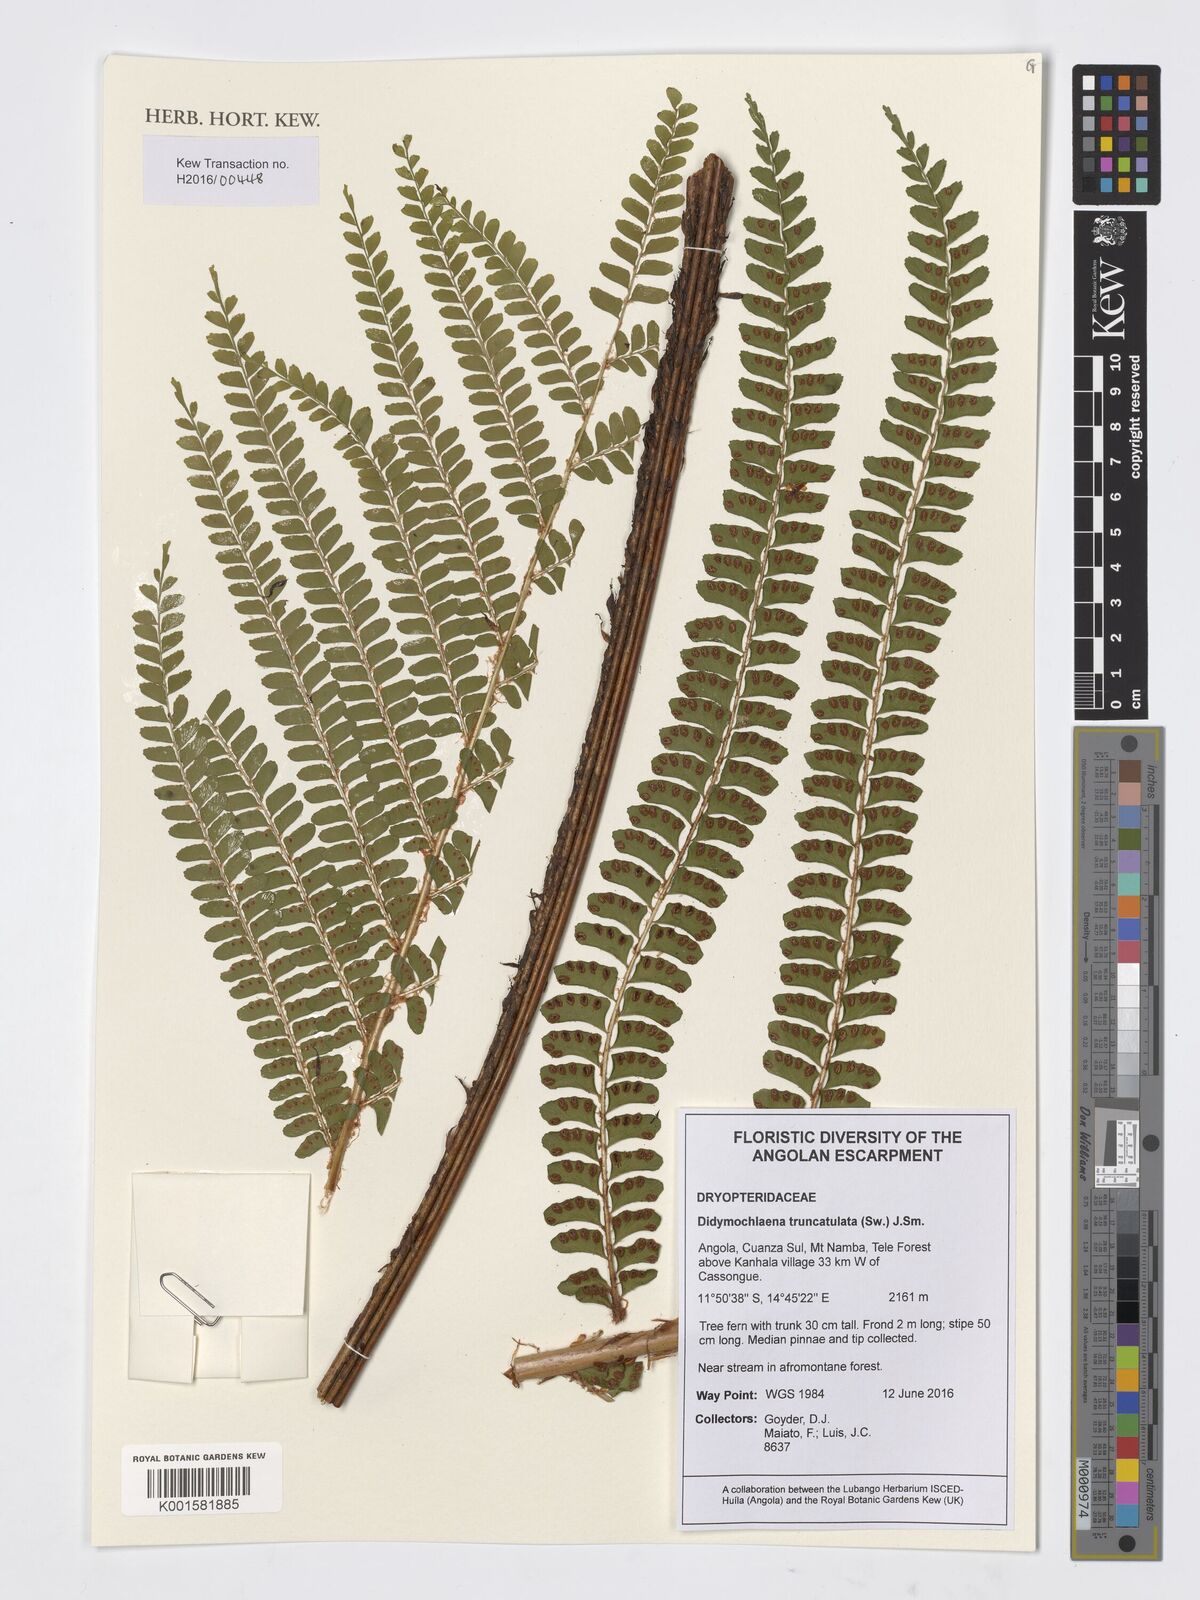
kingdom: Plantae
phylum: Tracheophyta
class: Polypodiopsida
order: Polypodiales
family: Didymochlaenaceae
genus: Didymochlaena
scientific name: Didymochlaena truncatula
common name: Mahogany fern
